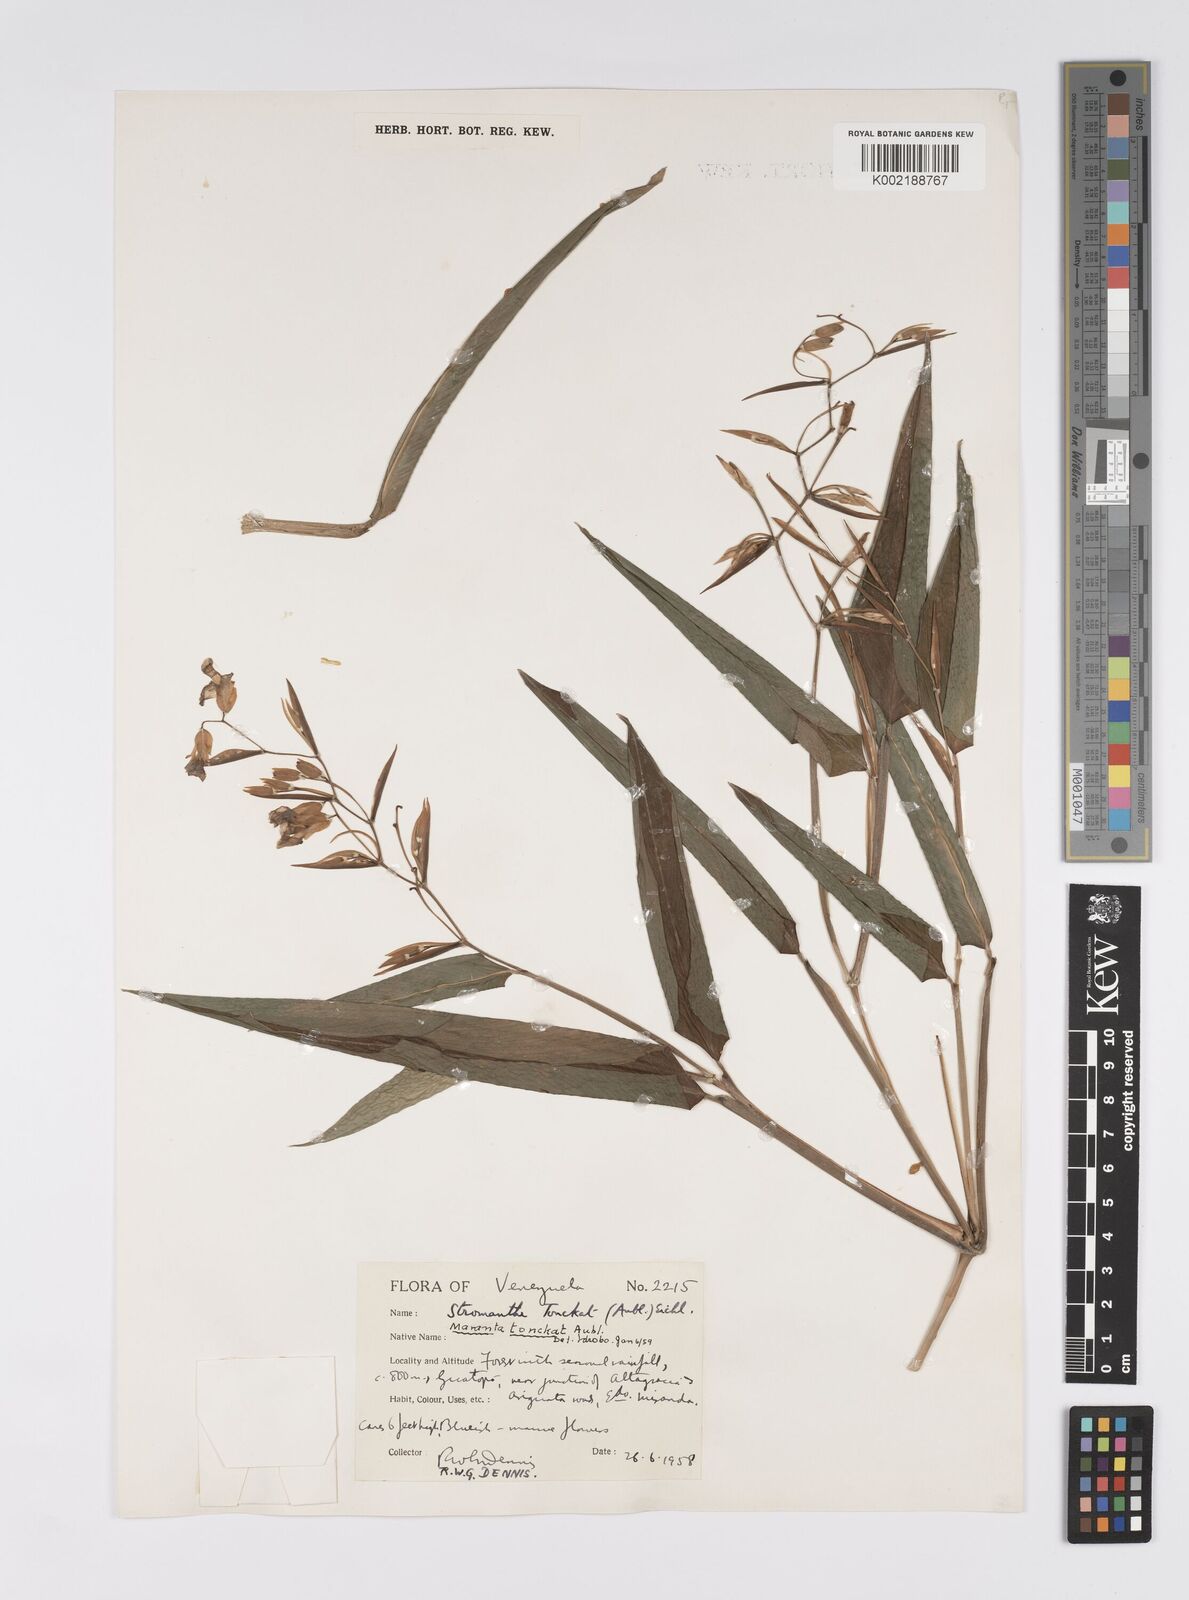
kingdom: Plantae
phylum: Tracheophyta
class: Liliopsida
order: Zingiberales
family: Marantaceae
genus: Stromanthe
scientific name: Stromanthe tonckat
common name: Stromanthe
